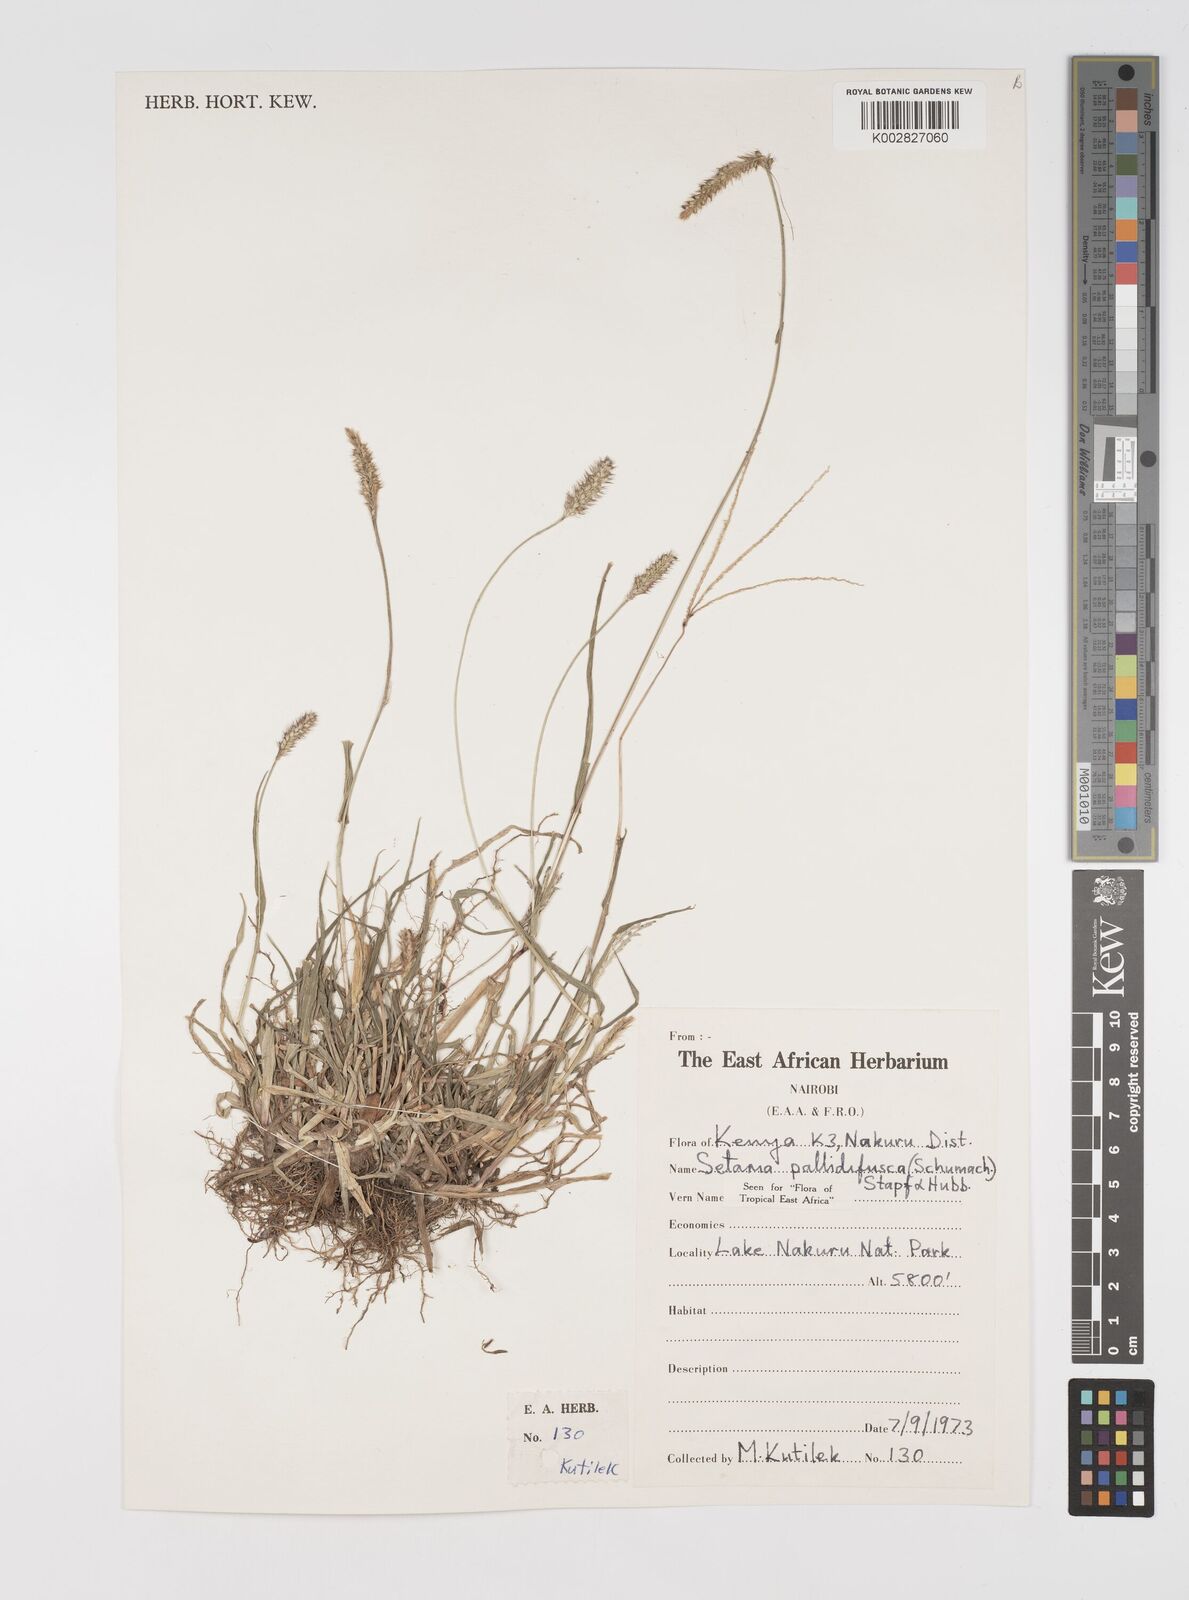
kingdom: Plantae
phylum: Tracheophyta
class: Liliopsida
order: Poales
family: Poaceae
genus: Setaria
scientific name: Setaria pumila
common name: Yellow bristle-grass
